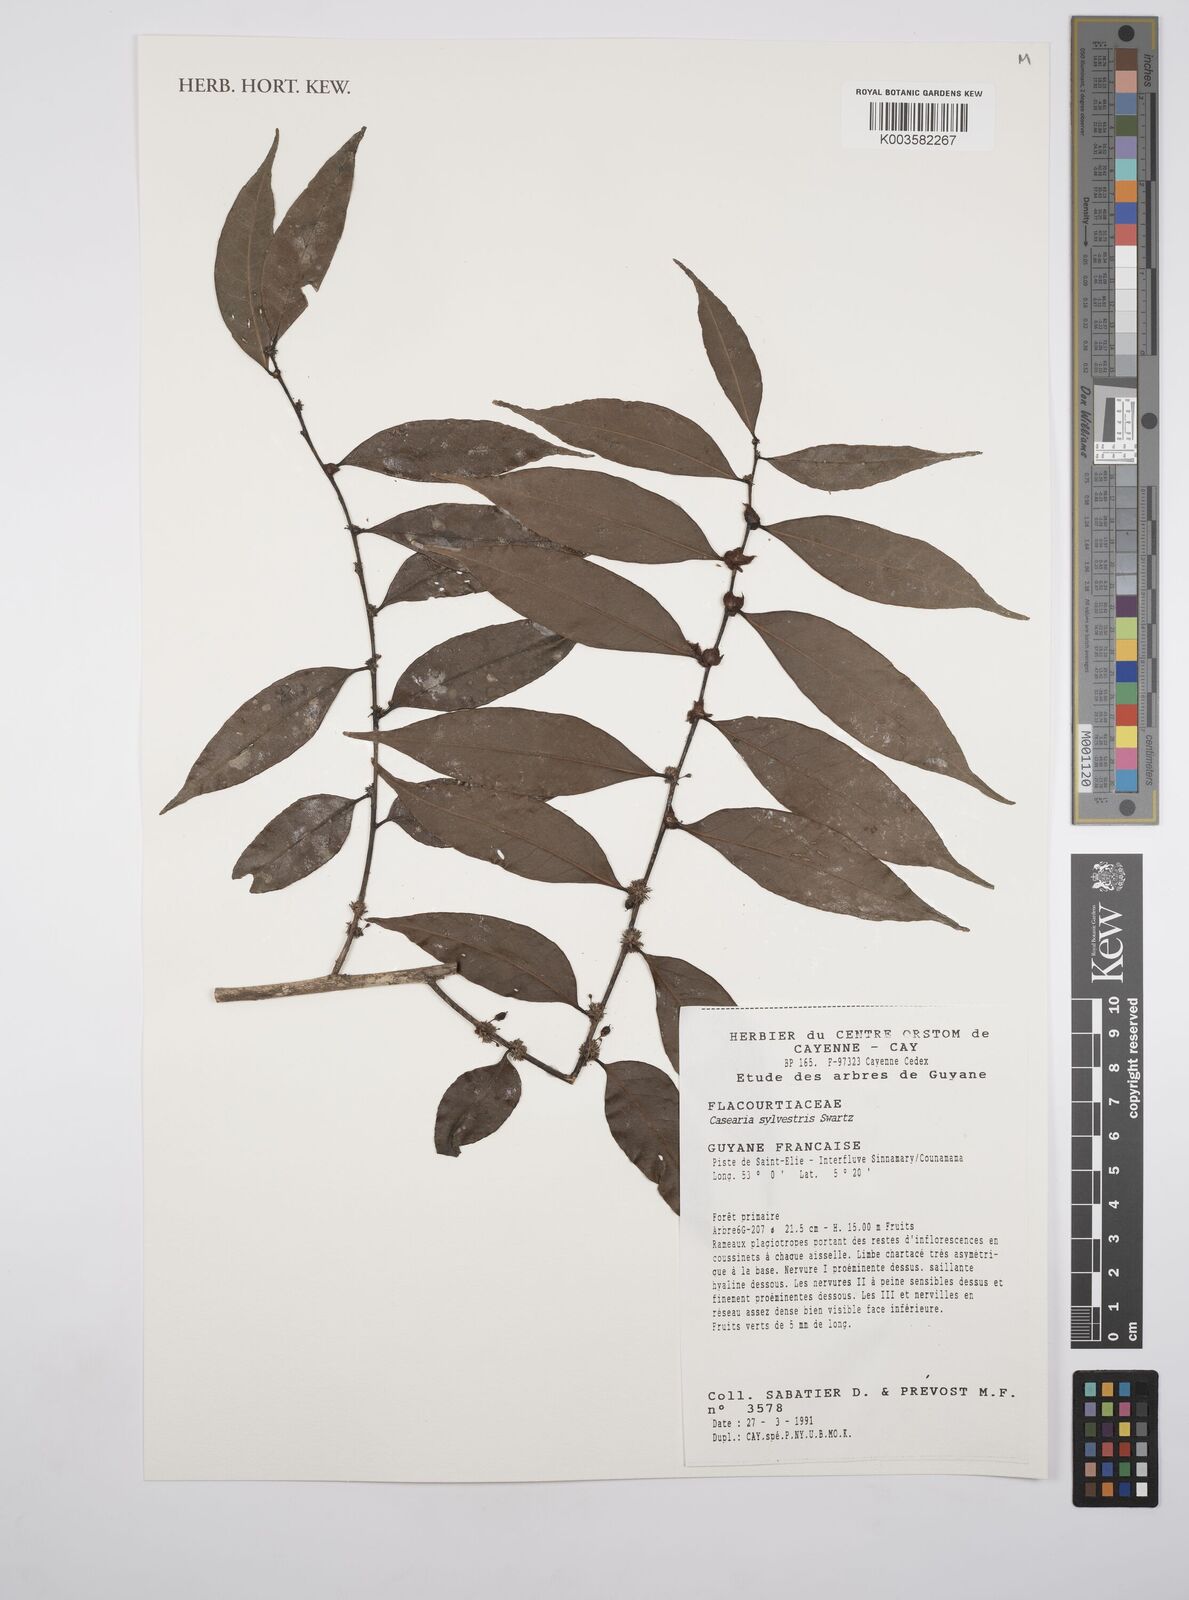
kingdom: Plantae
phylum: Tracheophyta
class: Magnoliopsida
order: Malpighiales
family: Salicaceae
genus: Casearia
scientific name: Casearia sylvestris
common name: Wild sage
